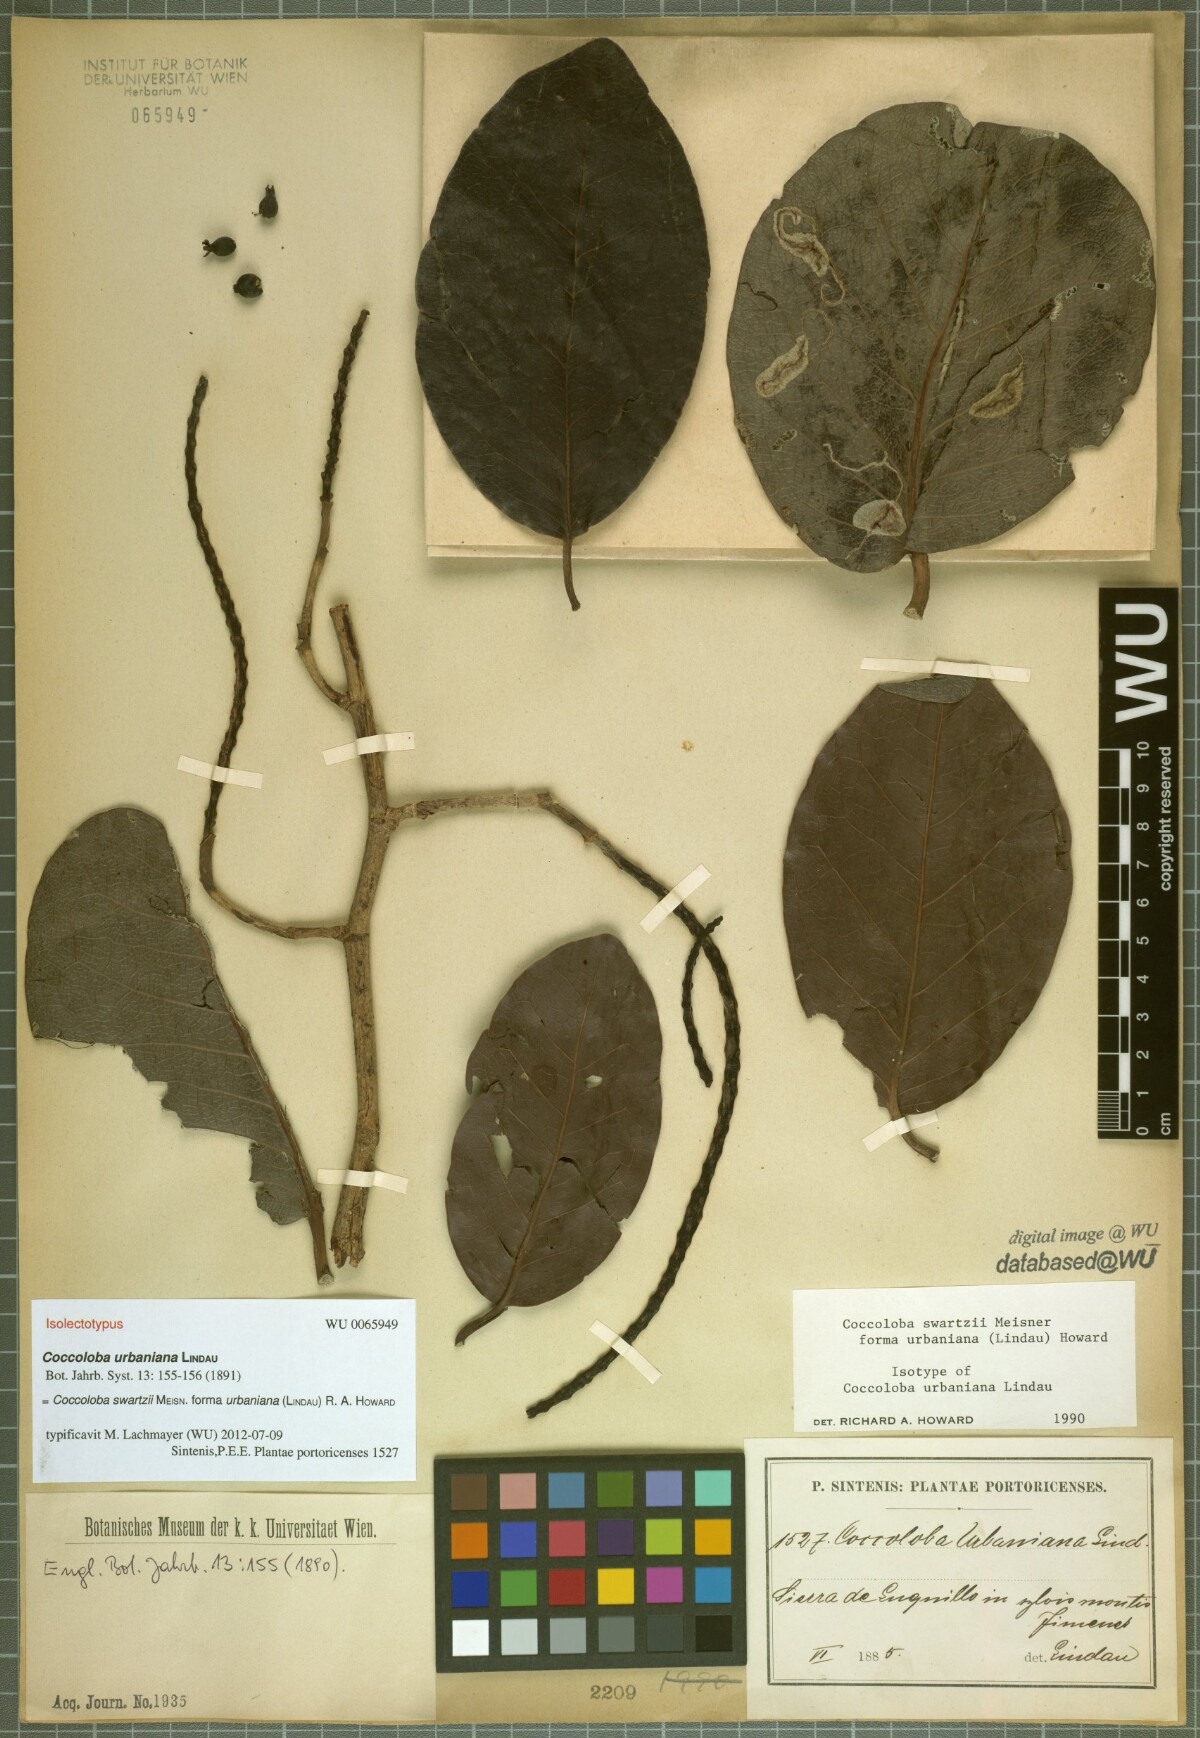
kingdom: Plantae
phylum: Tracheophyta
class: Magnoliopsida
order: Caryophyllales
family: Polygonaceae
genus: Coccoloba
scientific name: Coccoloba swartzii
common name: Red wood
